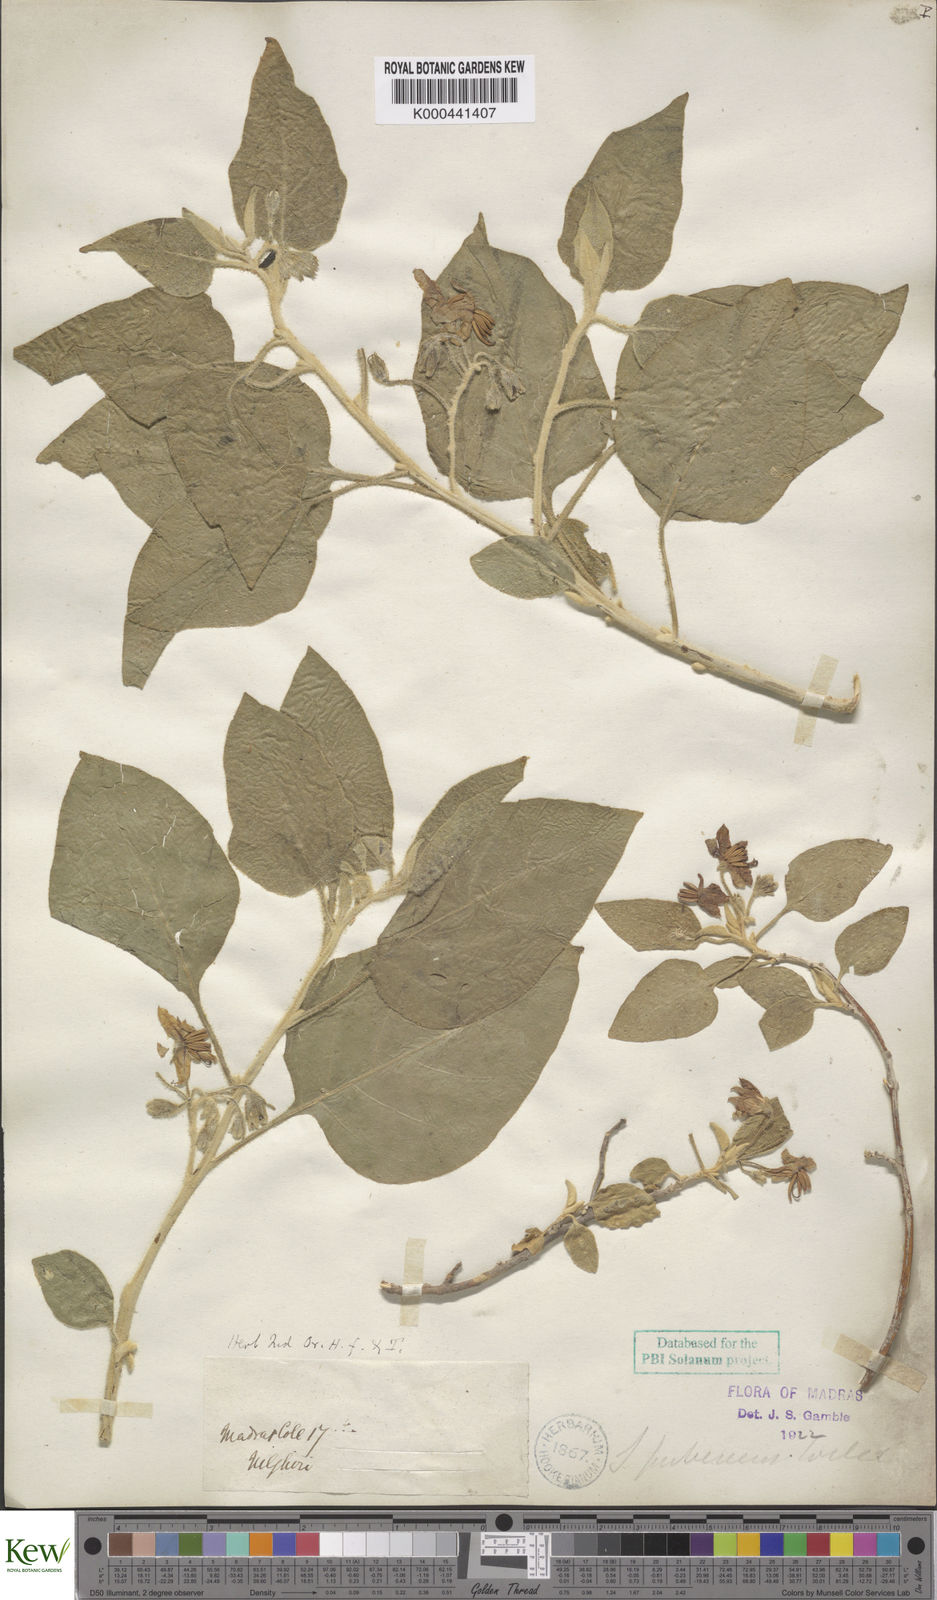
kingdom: Plantae
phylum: Tracheophyta
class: Magnoliopsida
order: Solanales
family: Solanaceae
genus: Solanum
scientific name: Solanum pubescens
